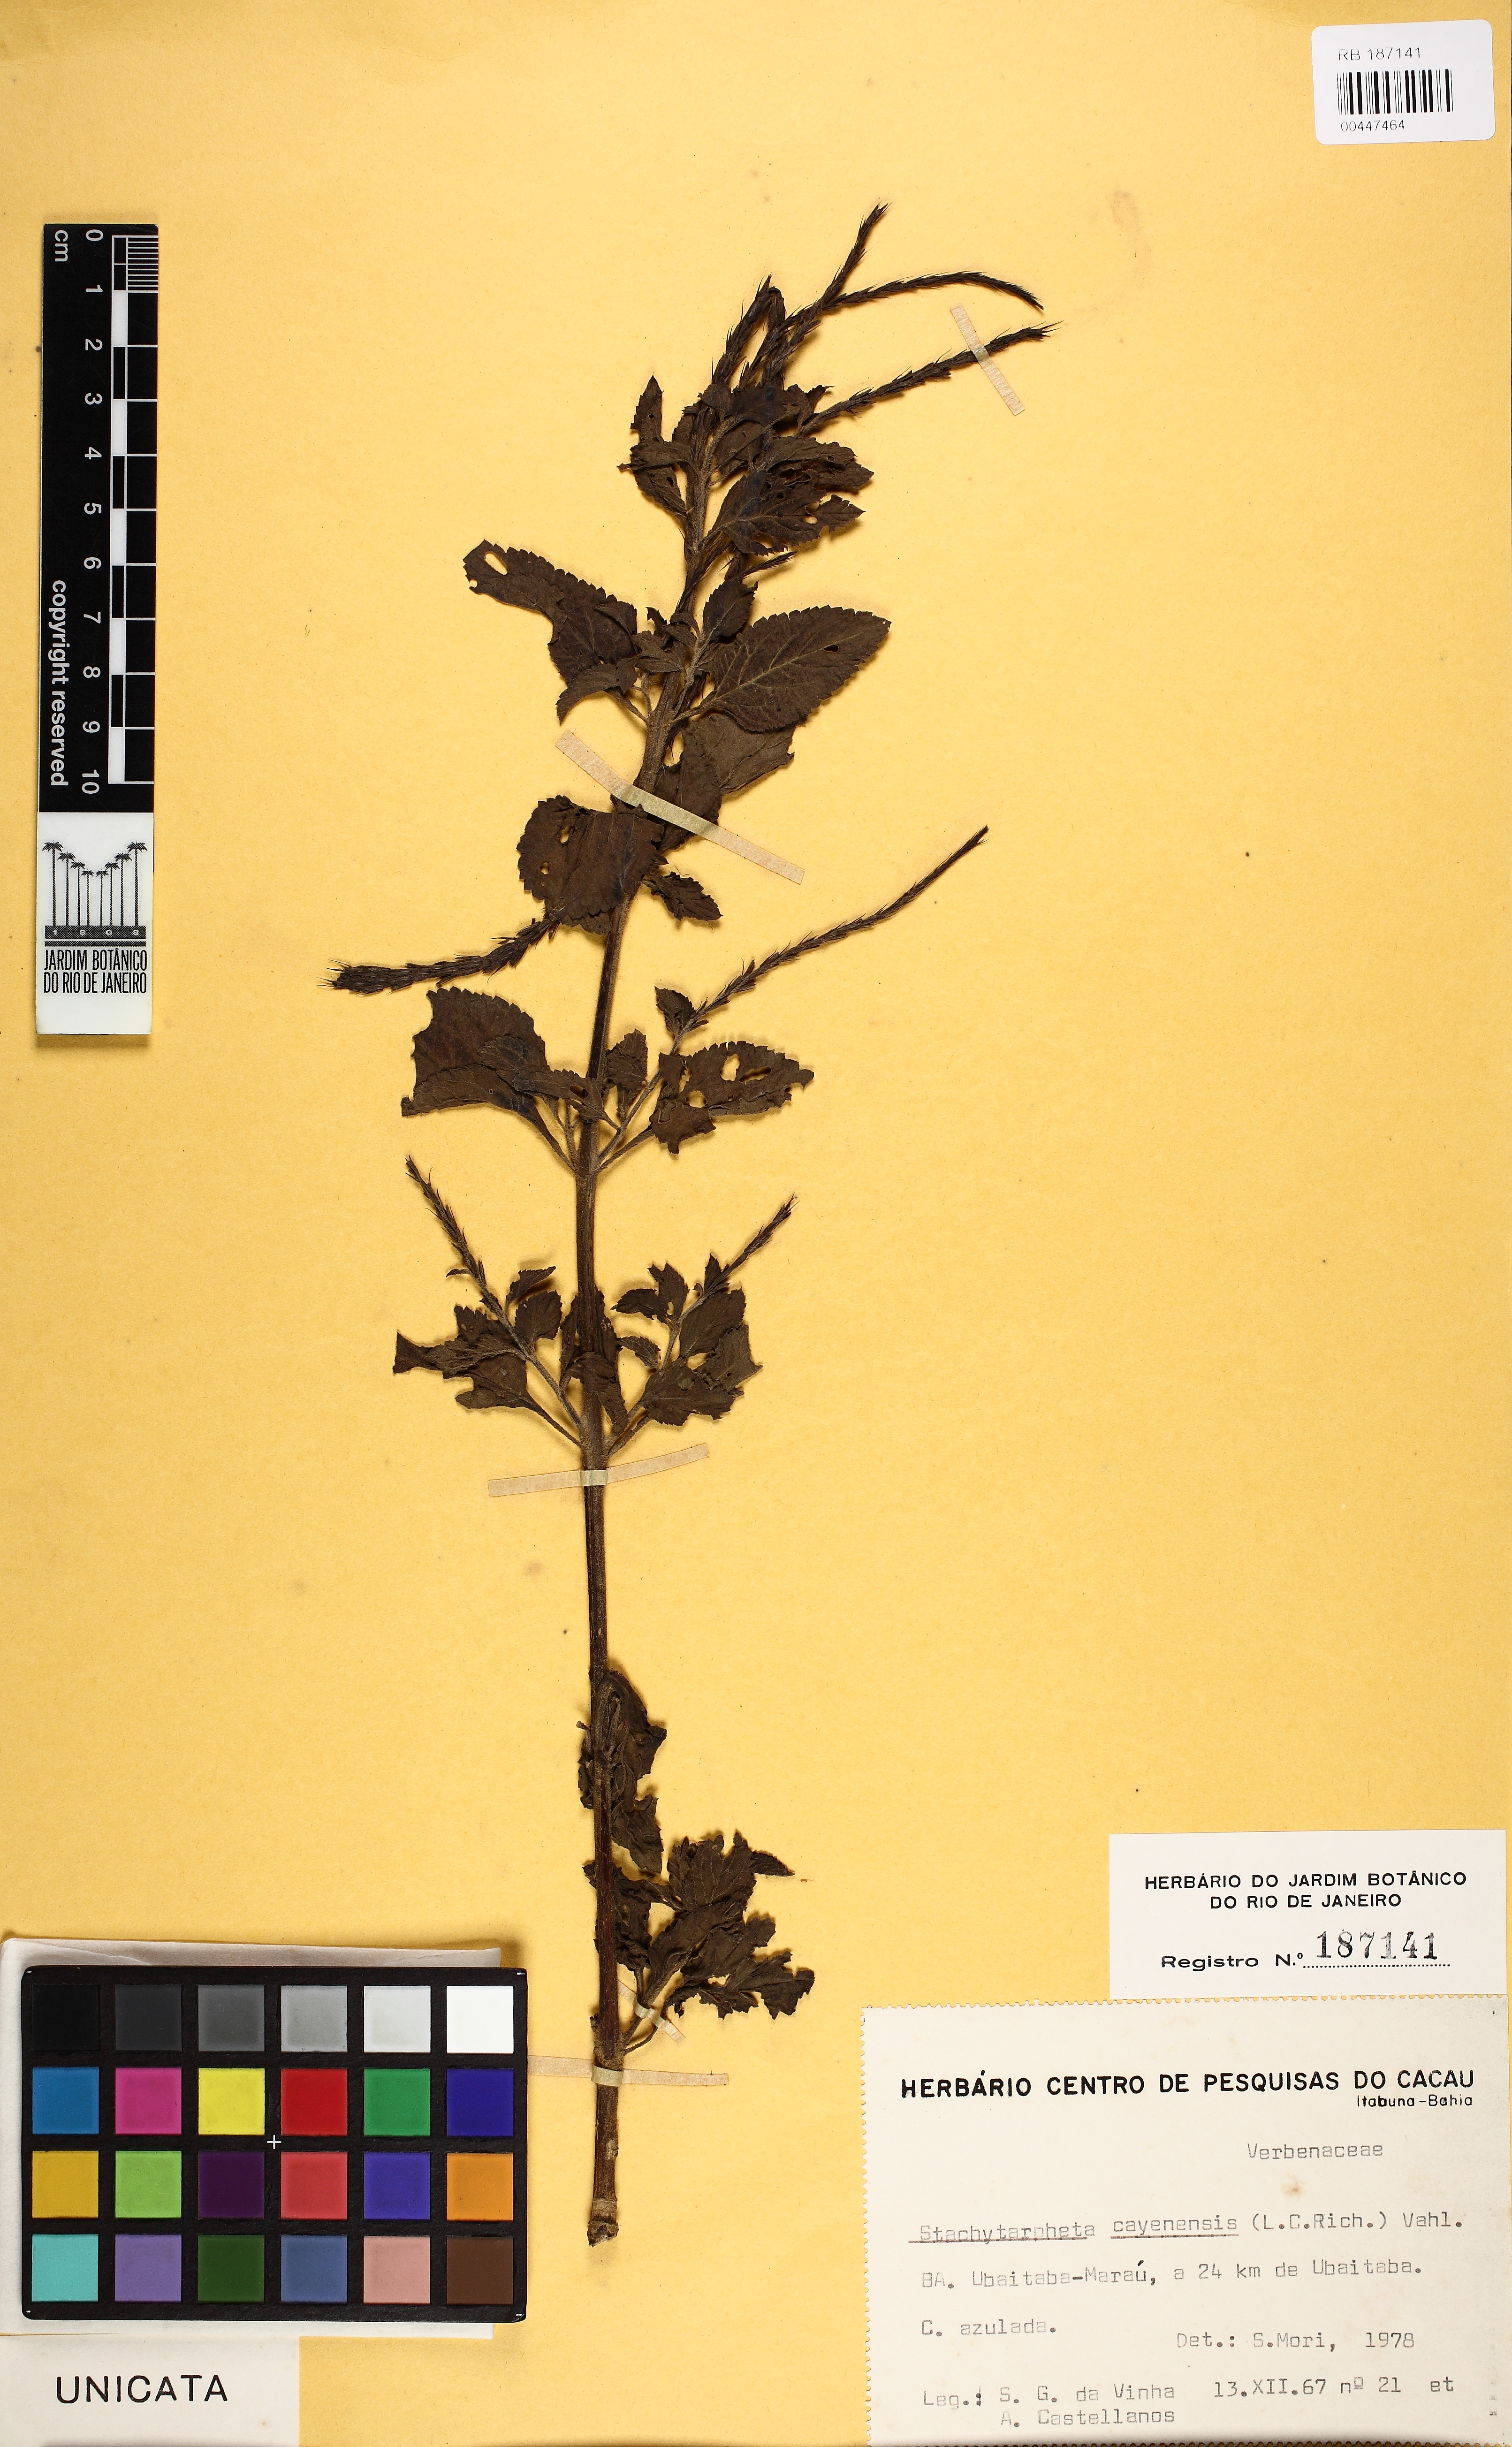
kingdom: Plantae
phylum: Tracheophyta
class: Magnoliopsida
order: Lamiales
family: Verbenaceae
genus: Stachytarpheta
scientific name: Stachytarpheta cayennensis
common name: Cayenne porterweed
